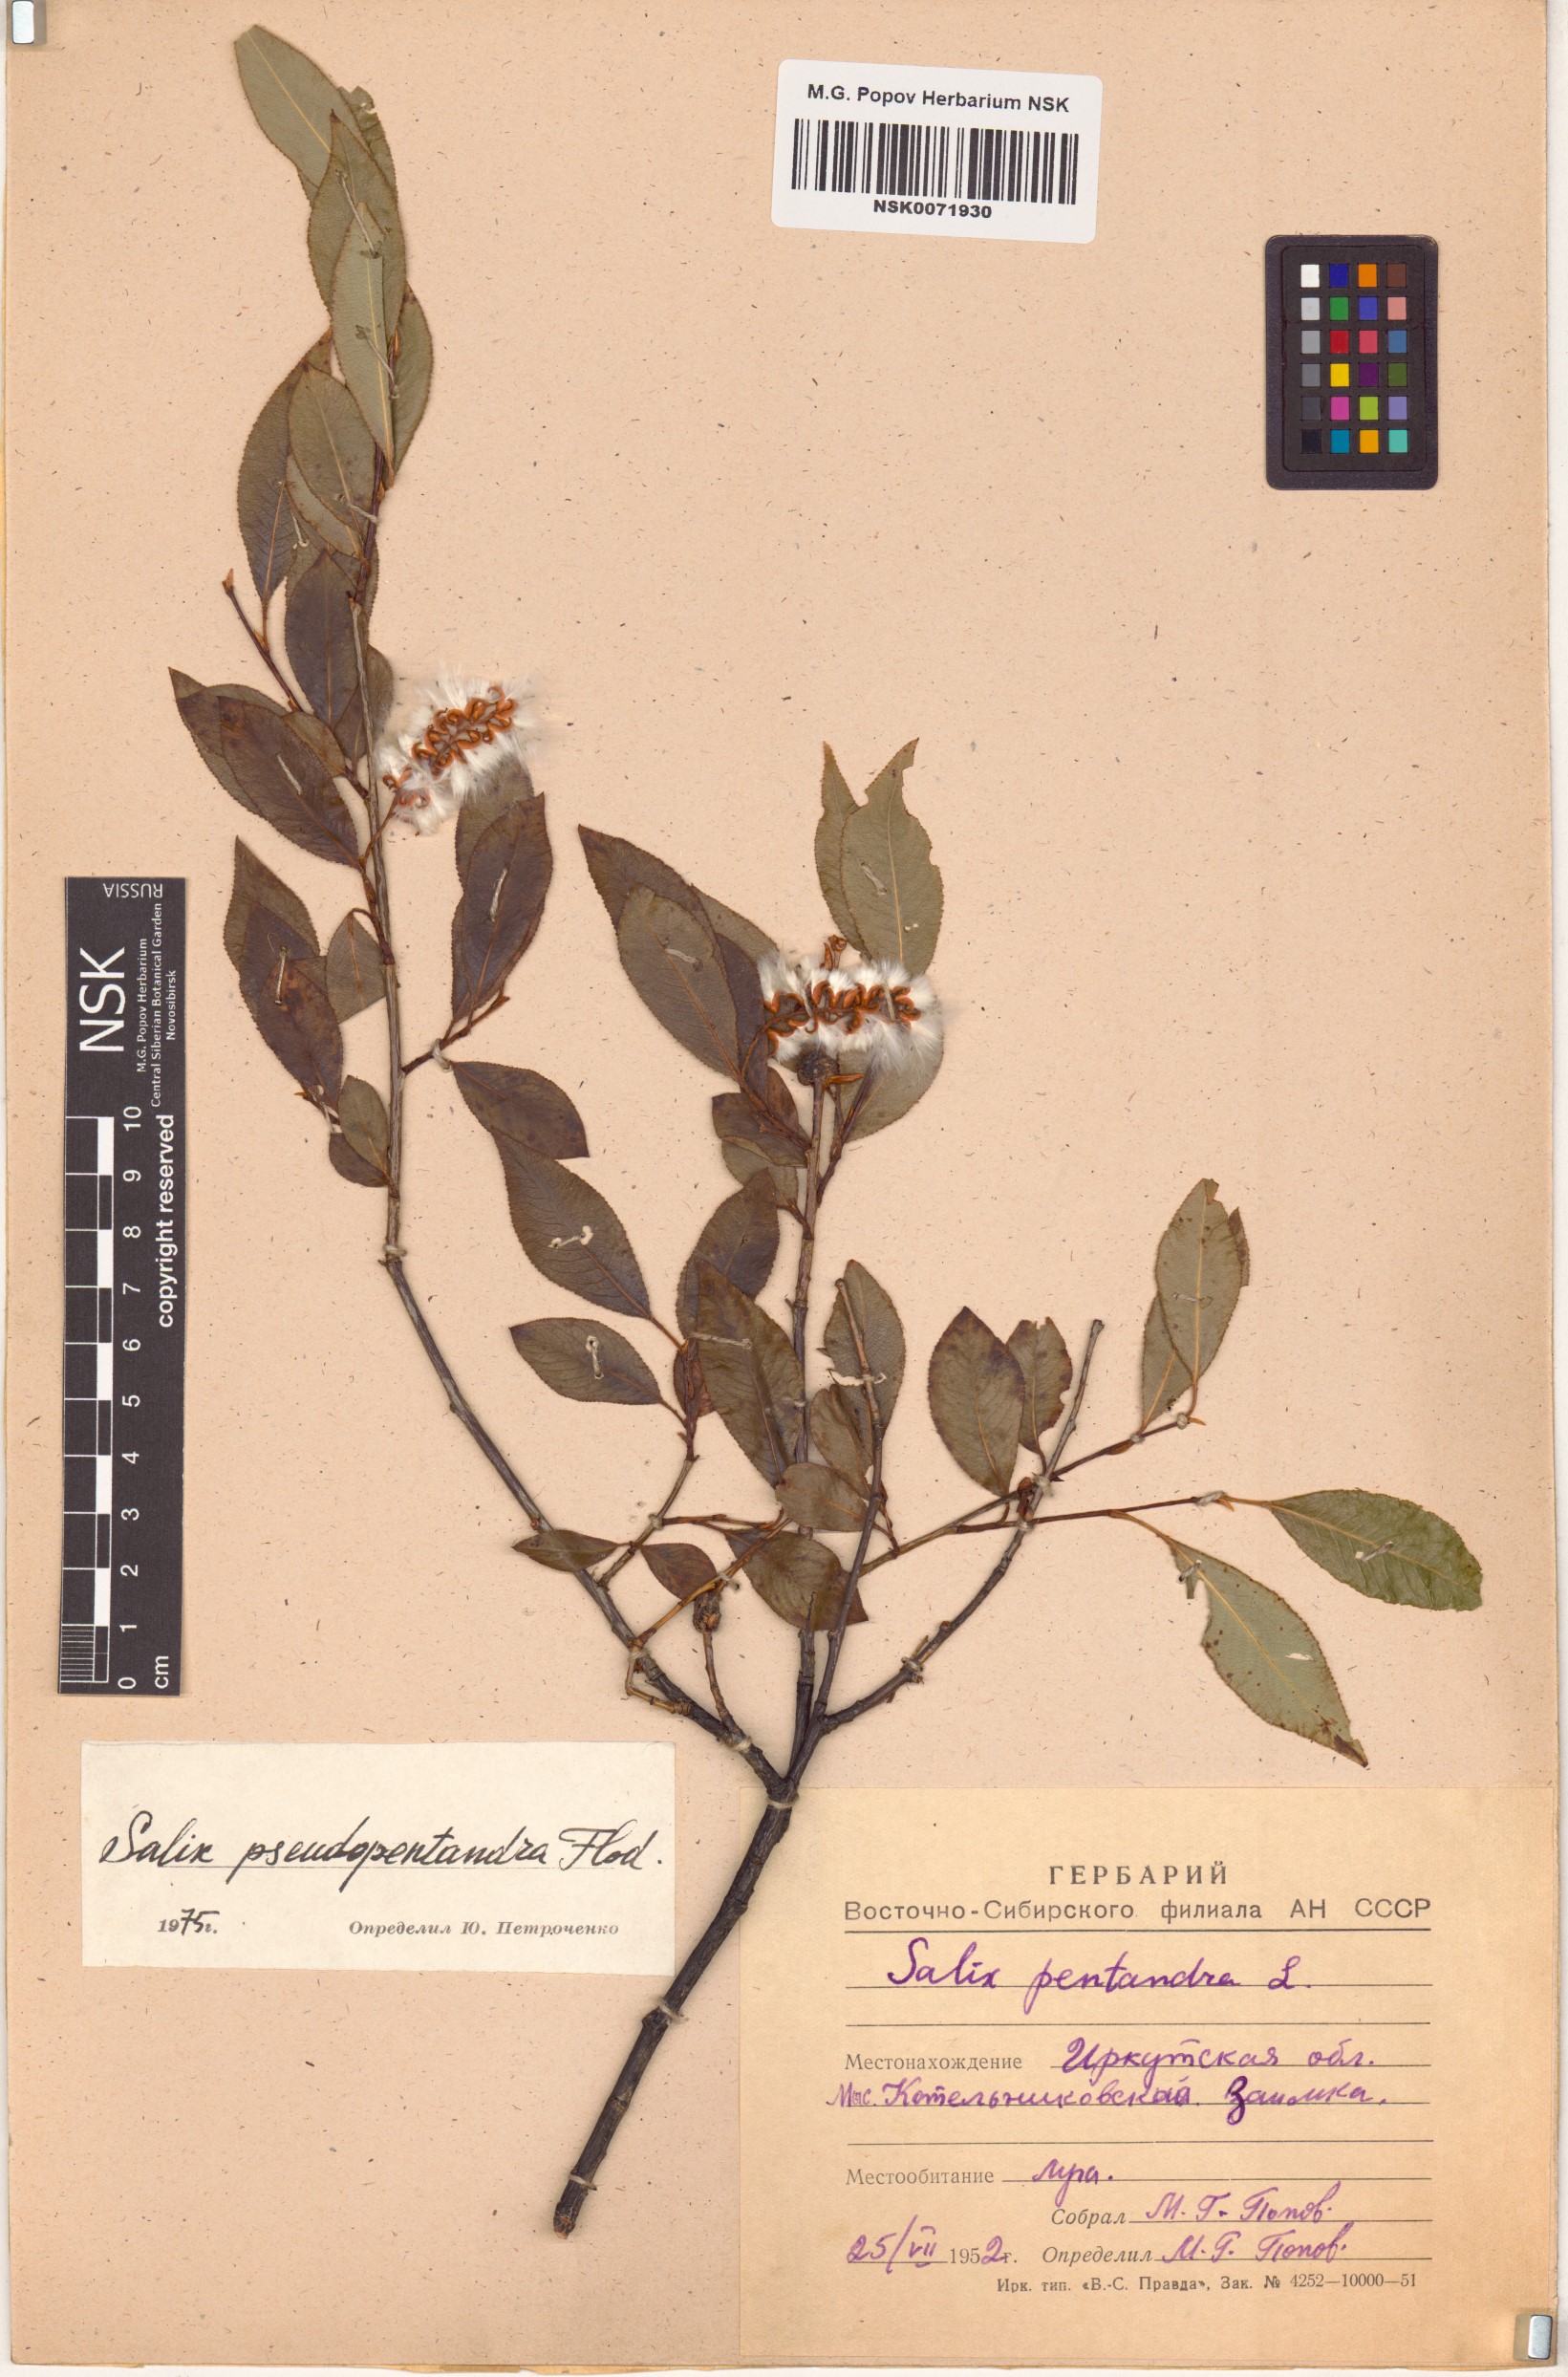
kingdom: Plantae
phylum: Tracheophyta
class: Magnoliopsida
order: Malpighiales
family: Salicaceae
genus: Salix
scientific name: Salix pseudopentandra
